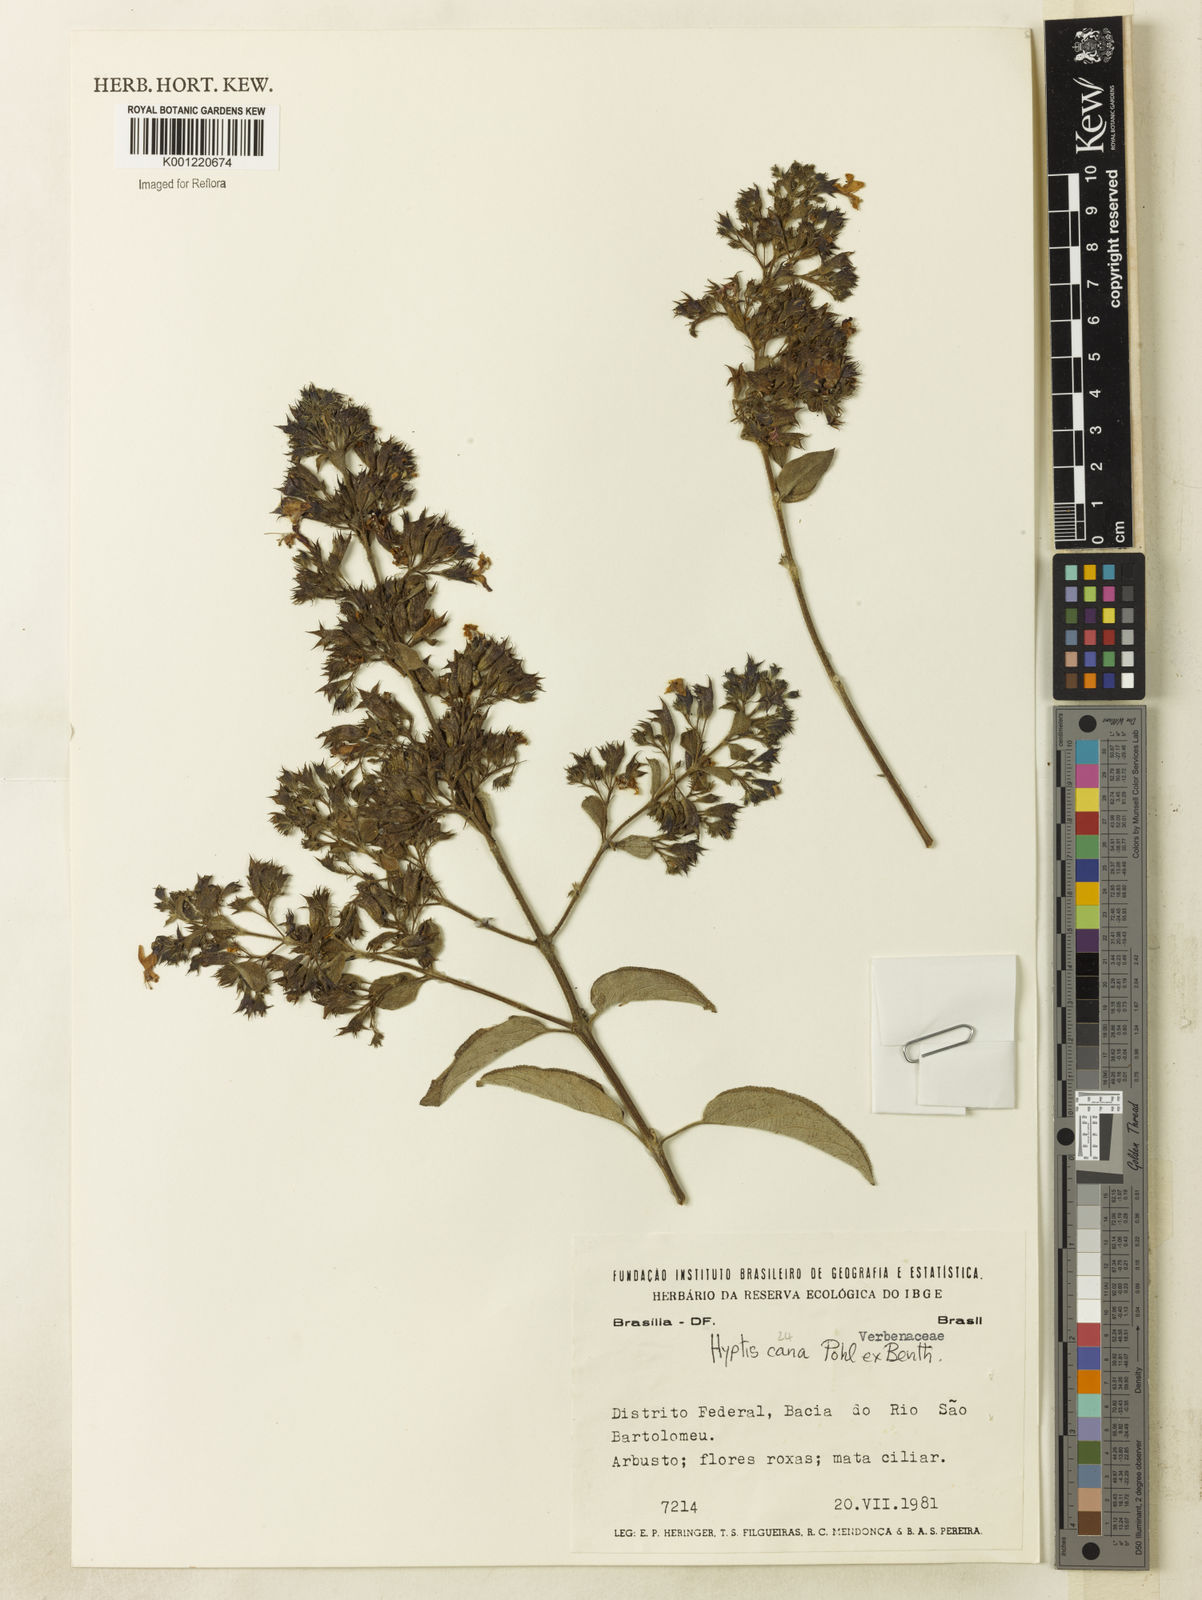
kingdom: Plantae
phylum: Tracheophyta
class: Magnoliopsida
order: Lamiales
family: Lamiaceae
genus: Hyptidendron
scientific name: Hyptidendron canum
